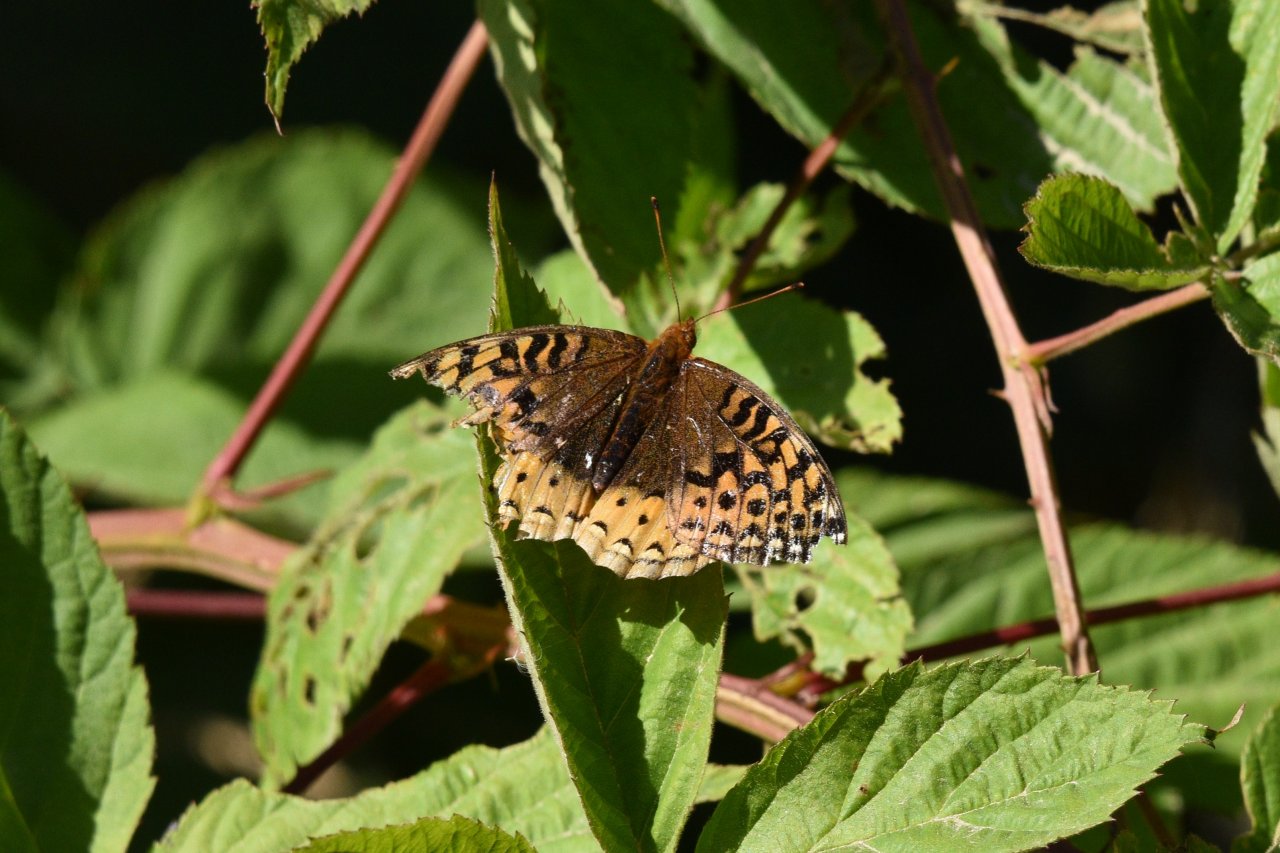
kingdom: Animalia
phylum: Arthropoda
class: Insecta
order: Lepidoptera
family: Nymphalidae
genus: Speyeria
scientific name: Speyeria cybele
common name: Great Spangled Fritillary
